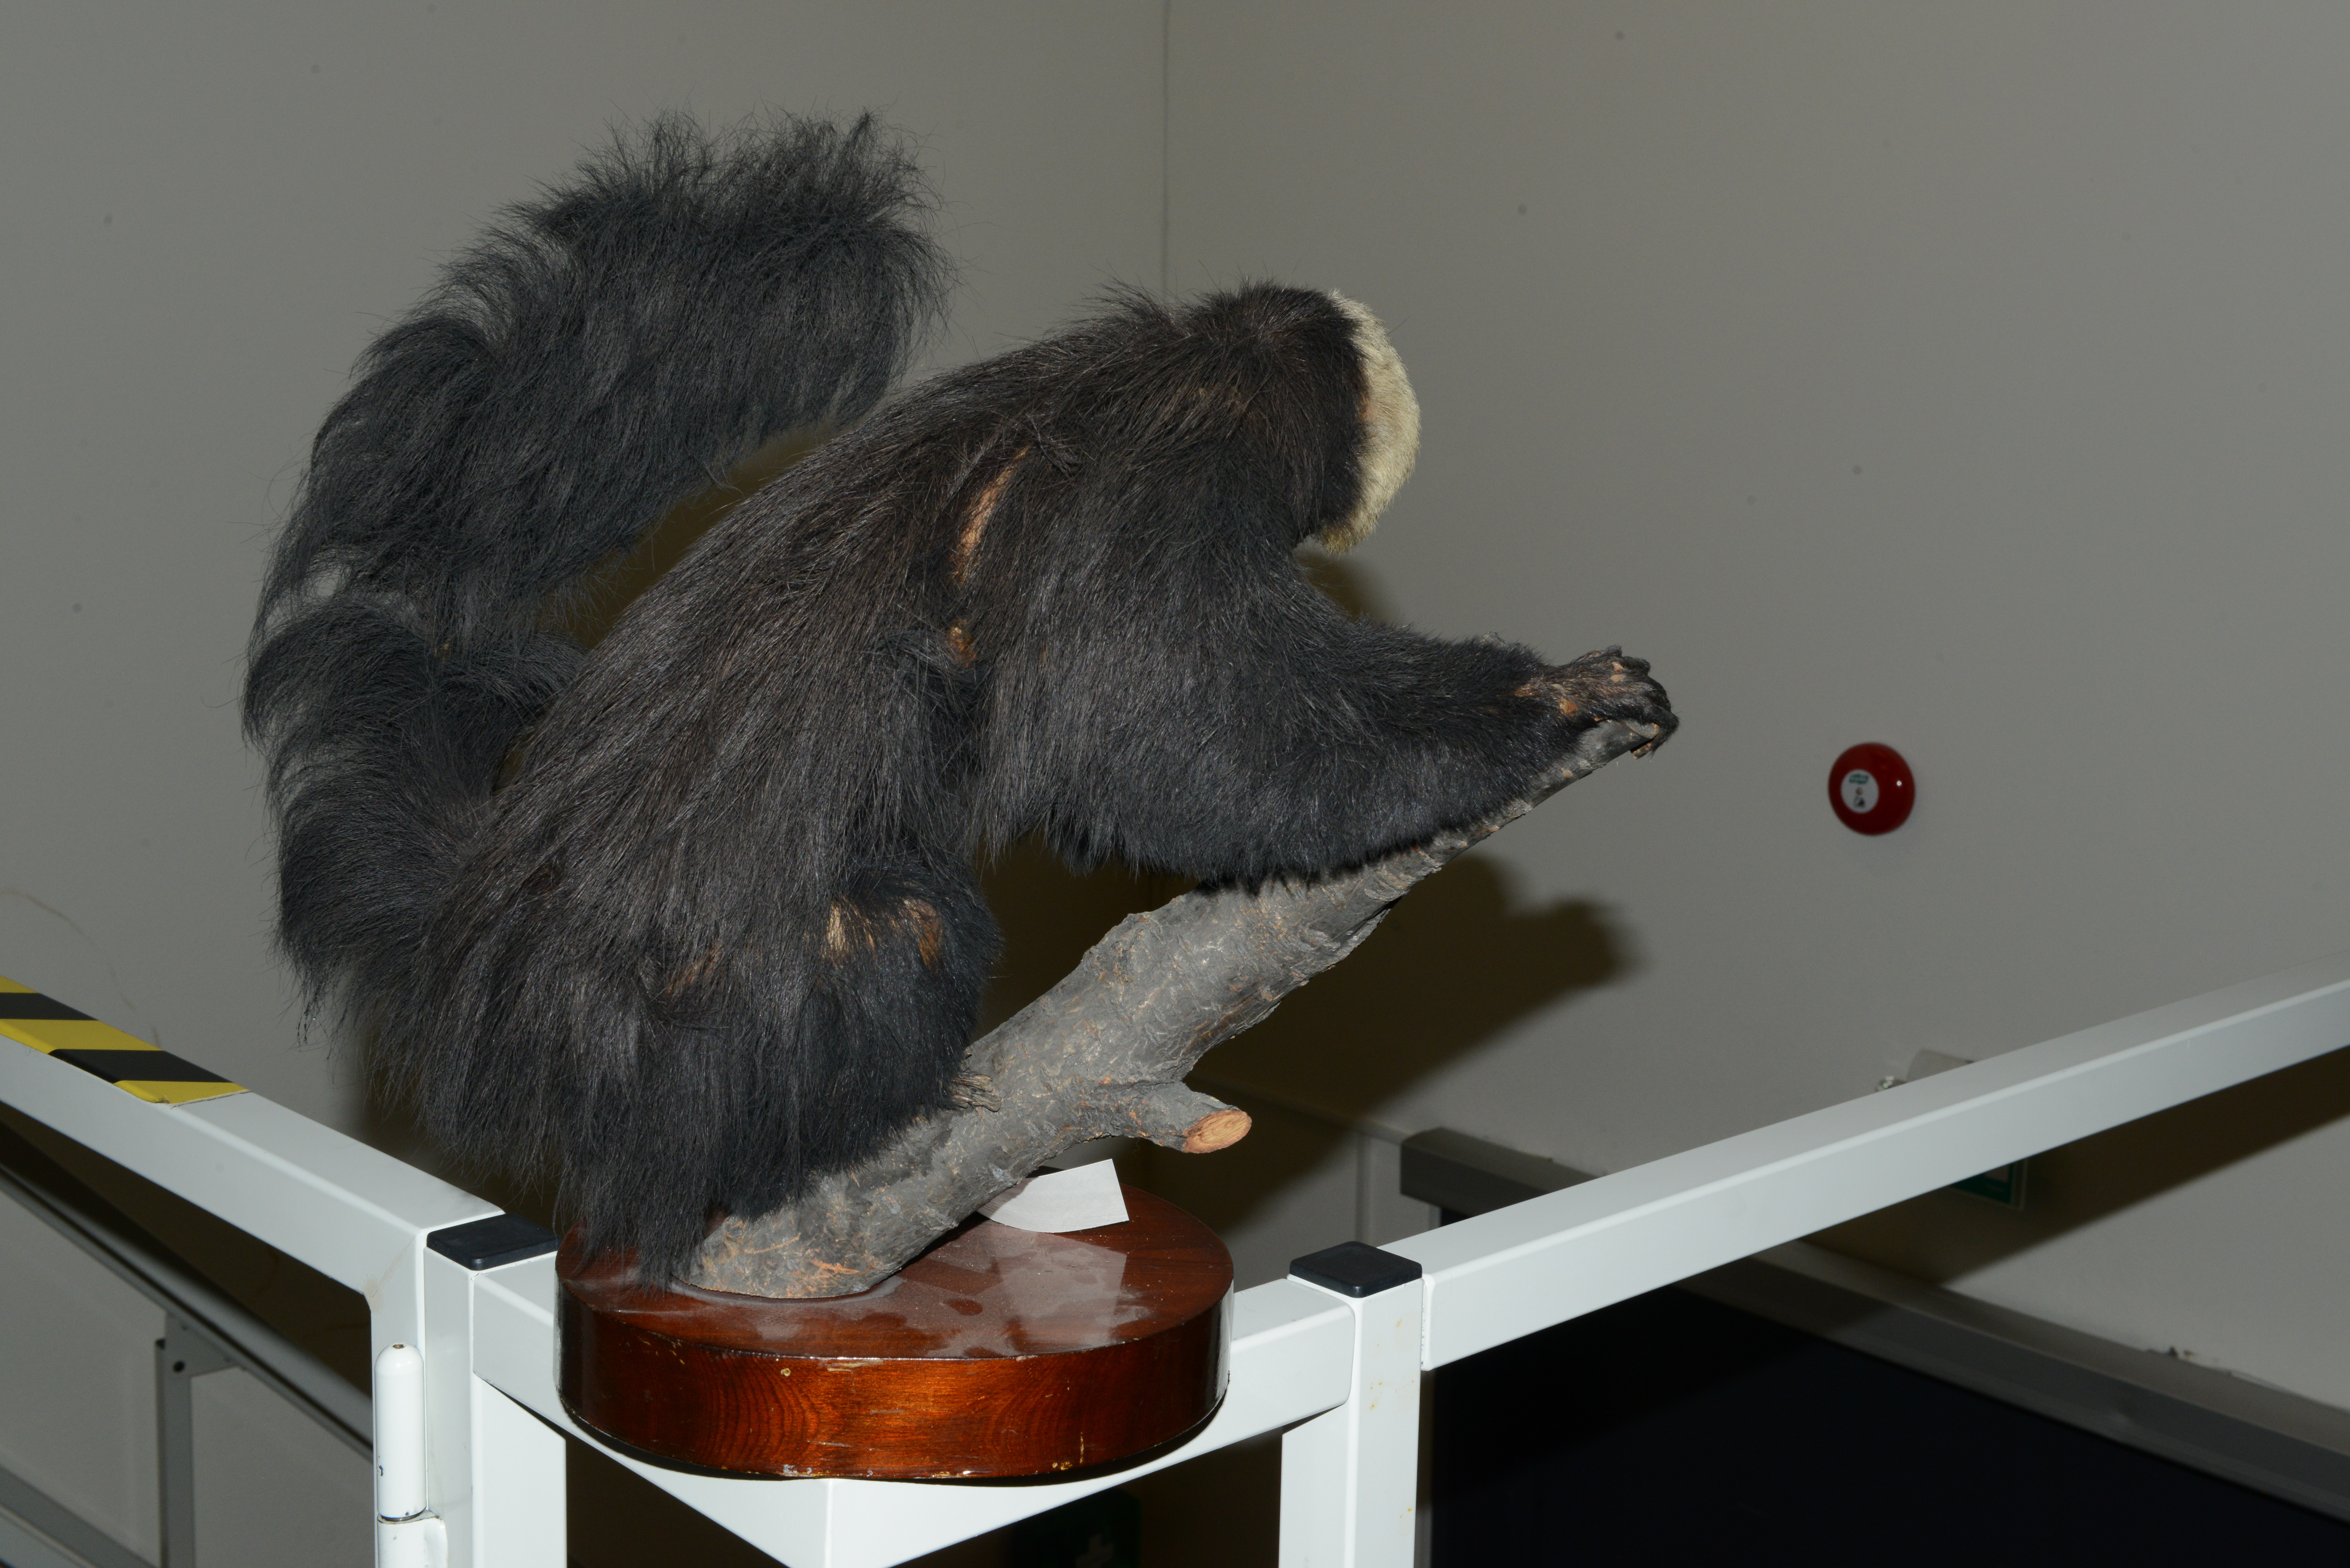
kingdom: Animalia
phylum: Chordata
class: Mammalia
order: Primates
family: Pitheciidae
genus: Pithecia
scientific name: Pithecia pithecia
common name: White-faced saki
